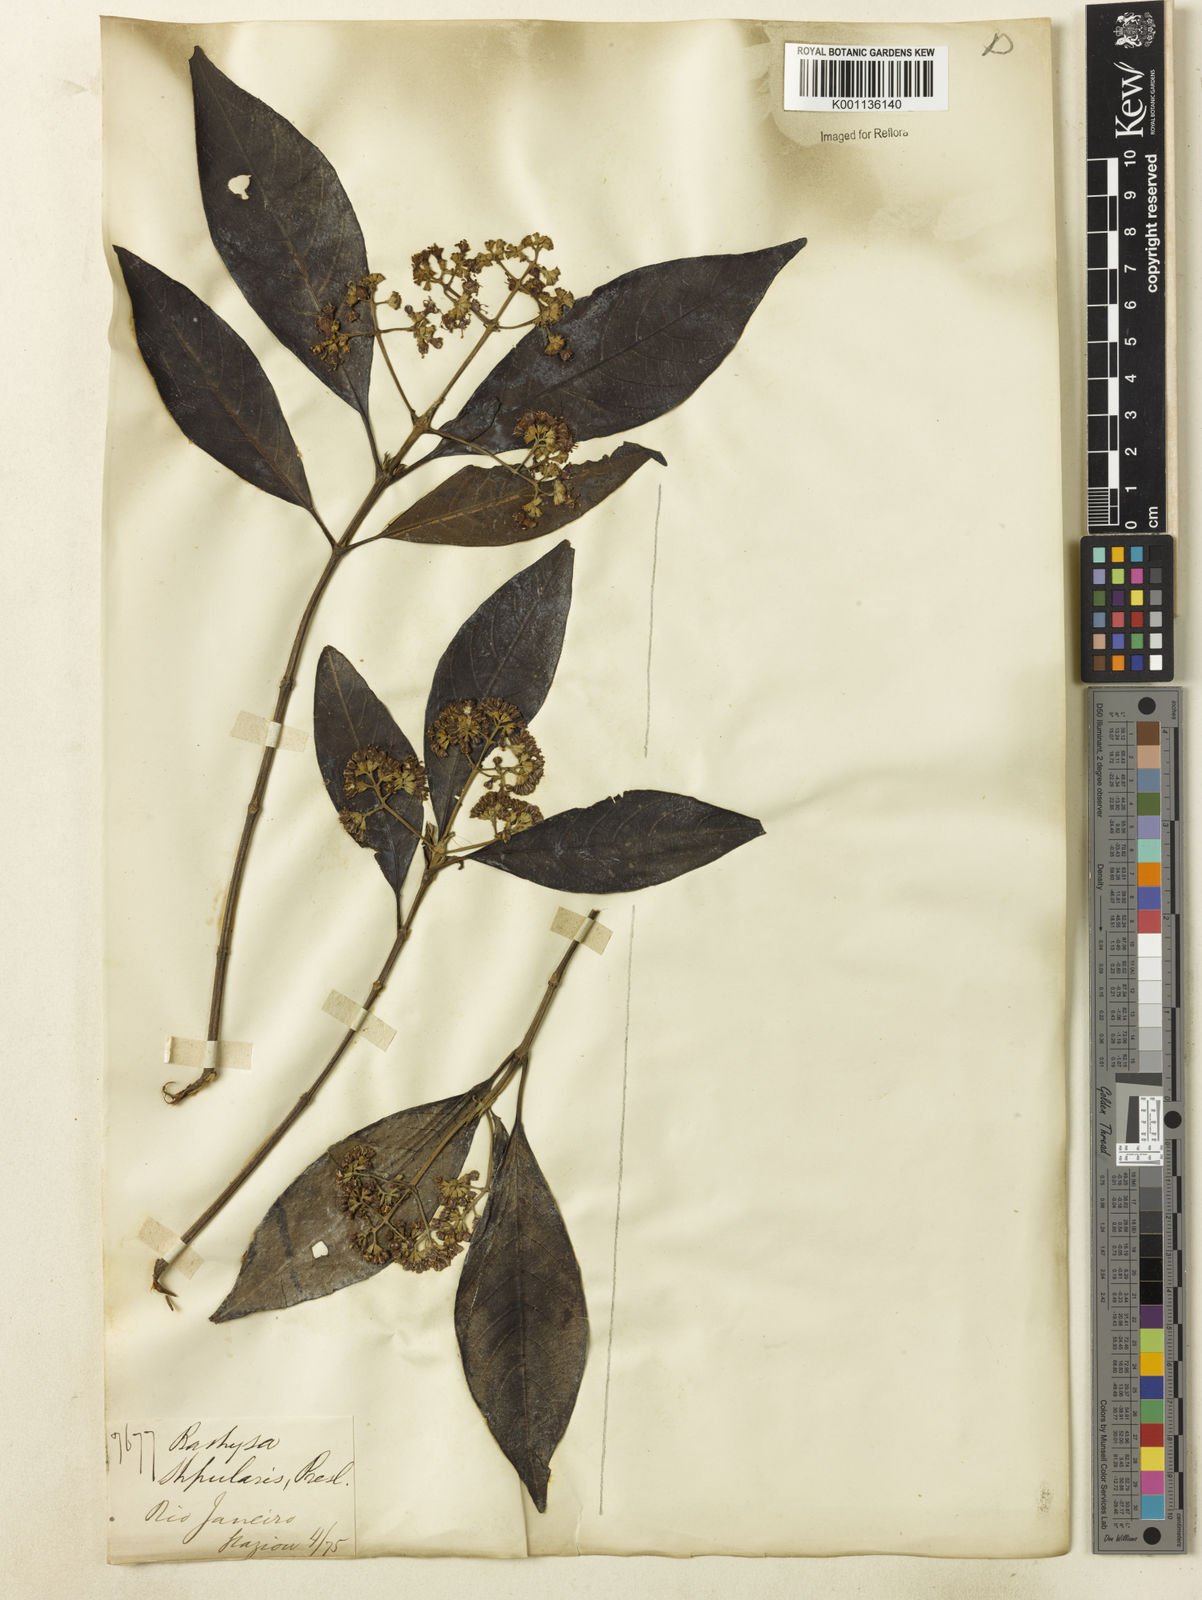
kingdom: Plantae
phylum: Tracheophyta
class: Magnoliopsida
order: Gentianales
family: Rubiaceae
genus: Bathysa
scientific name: Bathysa
